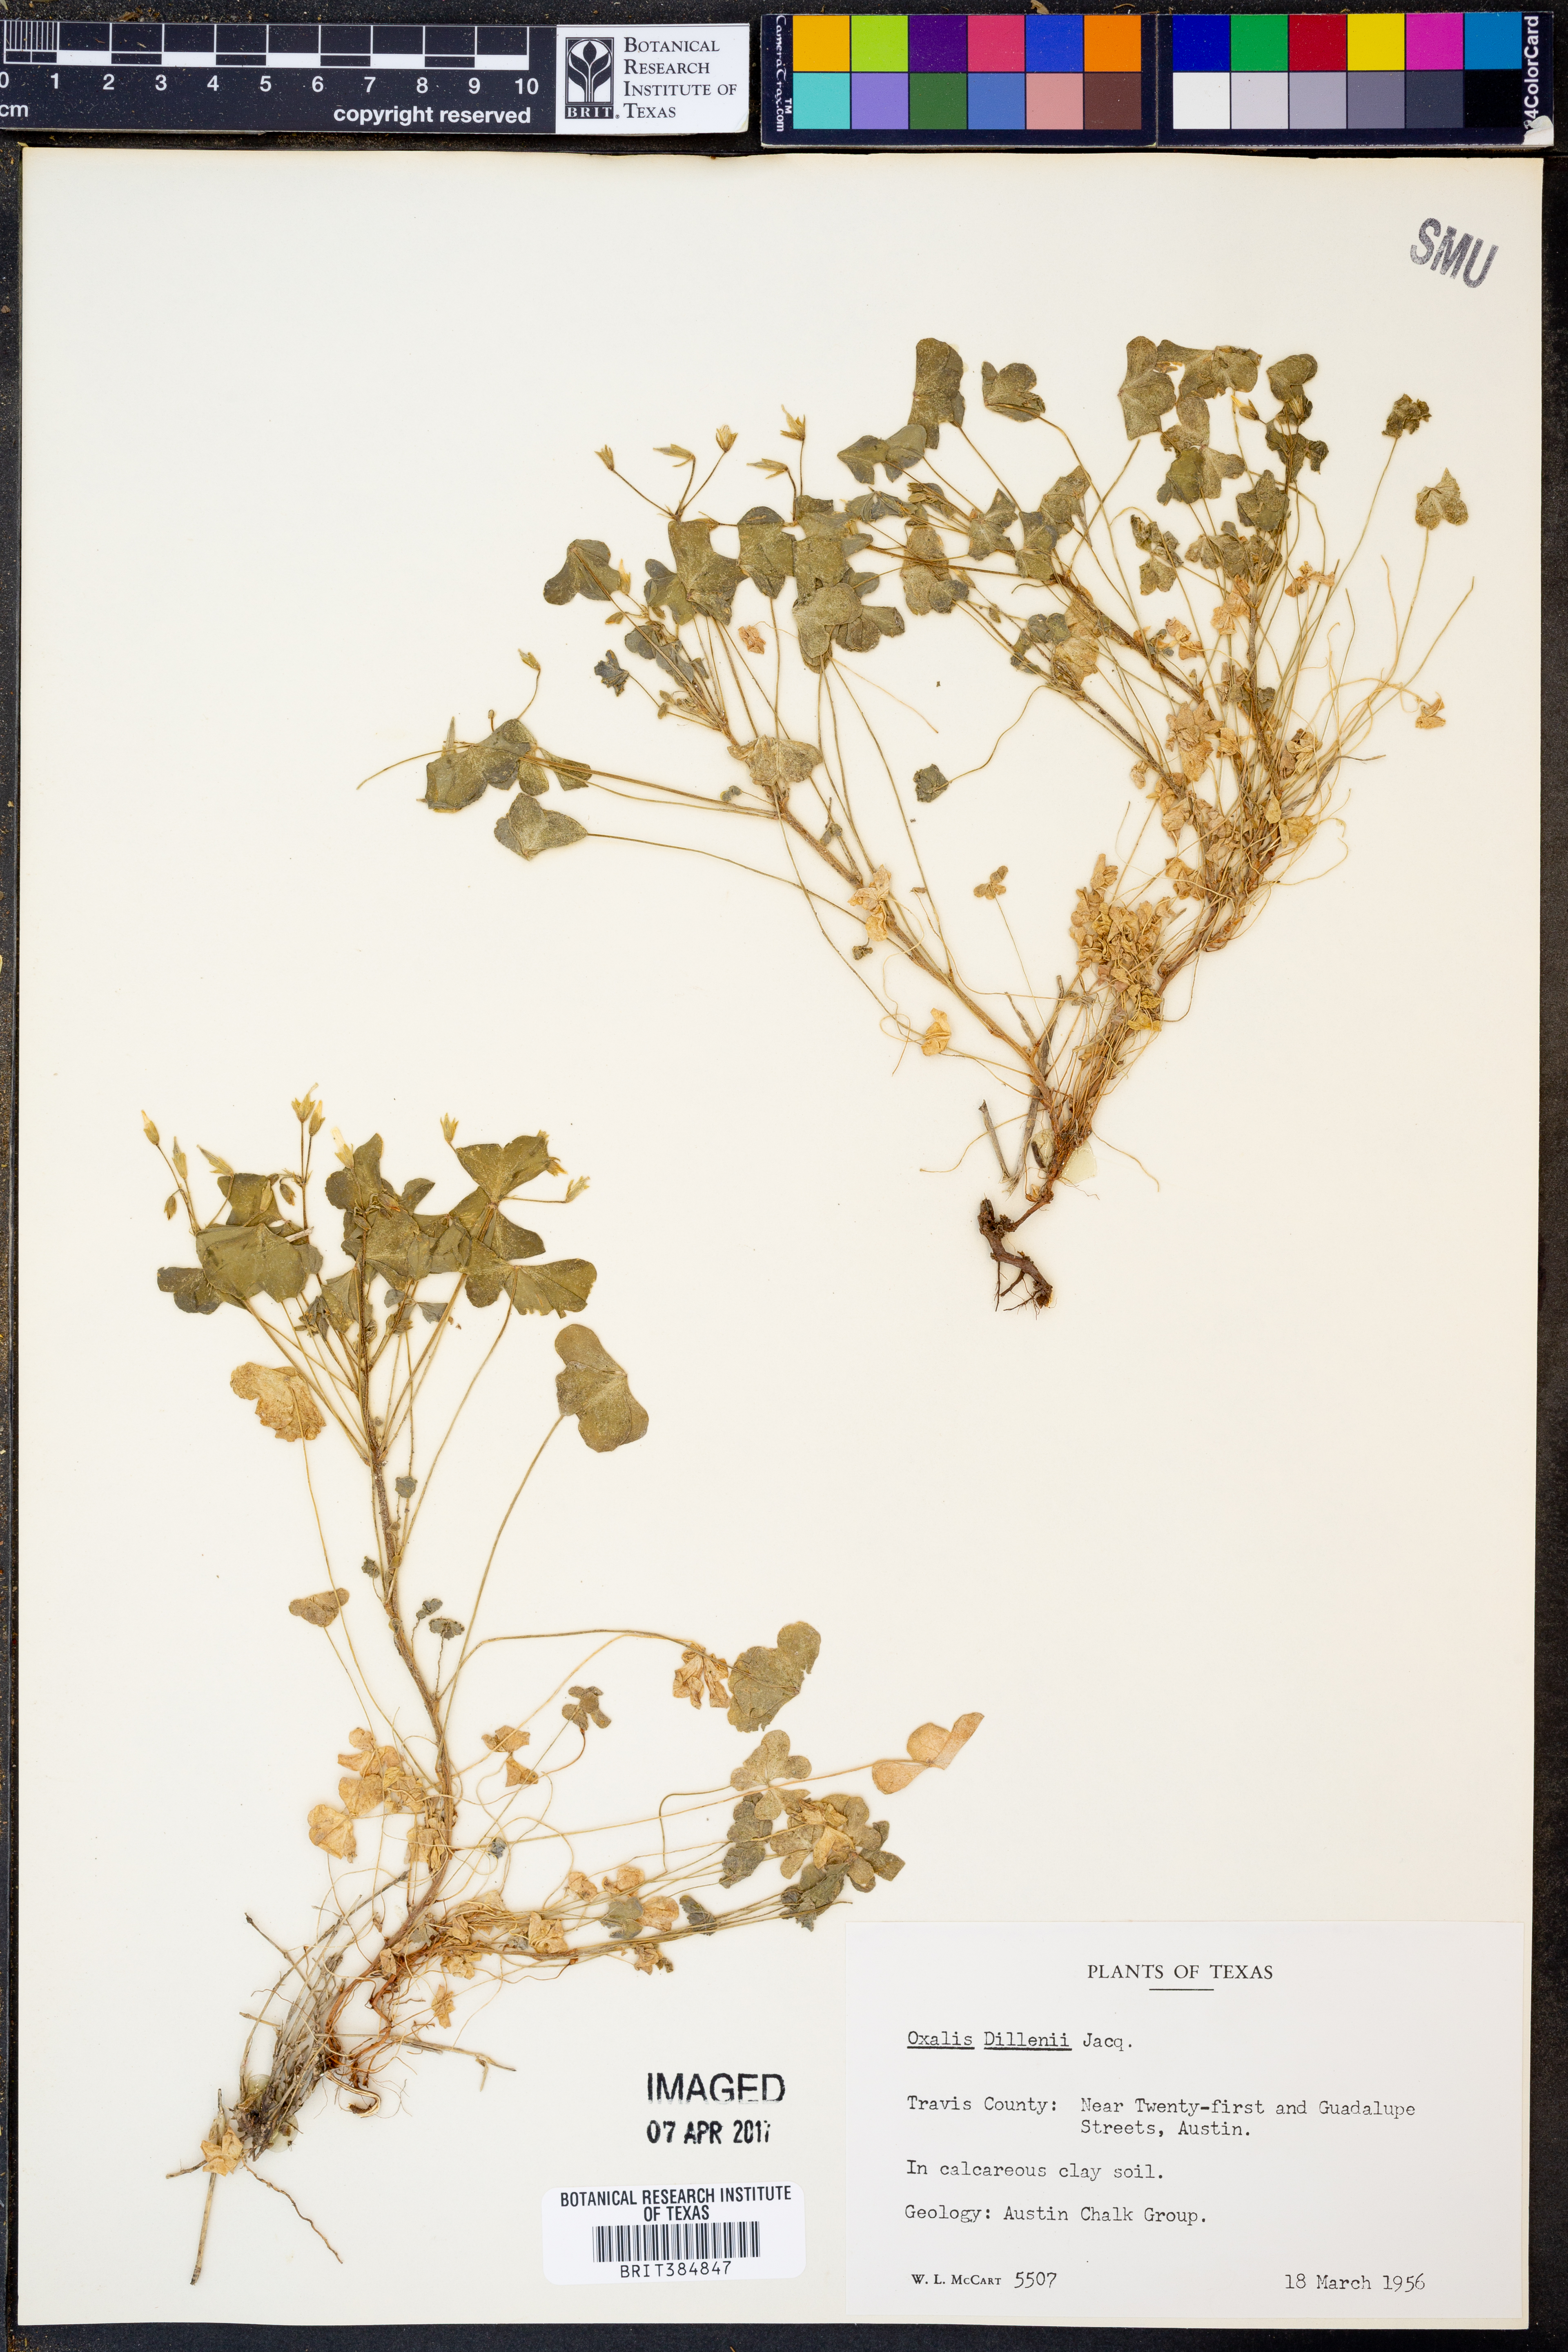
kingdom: Plantae
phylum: Tracheophyta
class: Magnoliopsida
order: Oxalidales
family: Oxalidaceae
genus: Oxalis
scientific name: Oxalis dillenii
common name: Sussex yellow-sorrel
